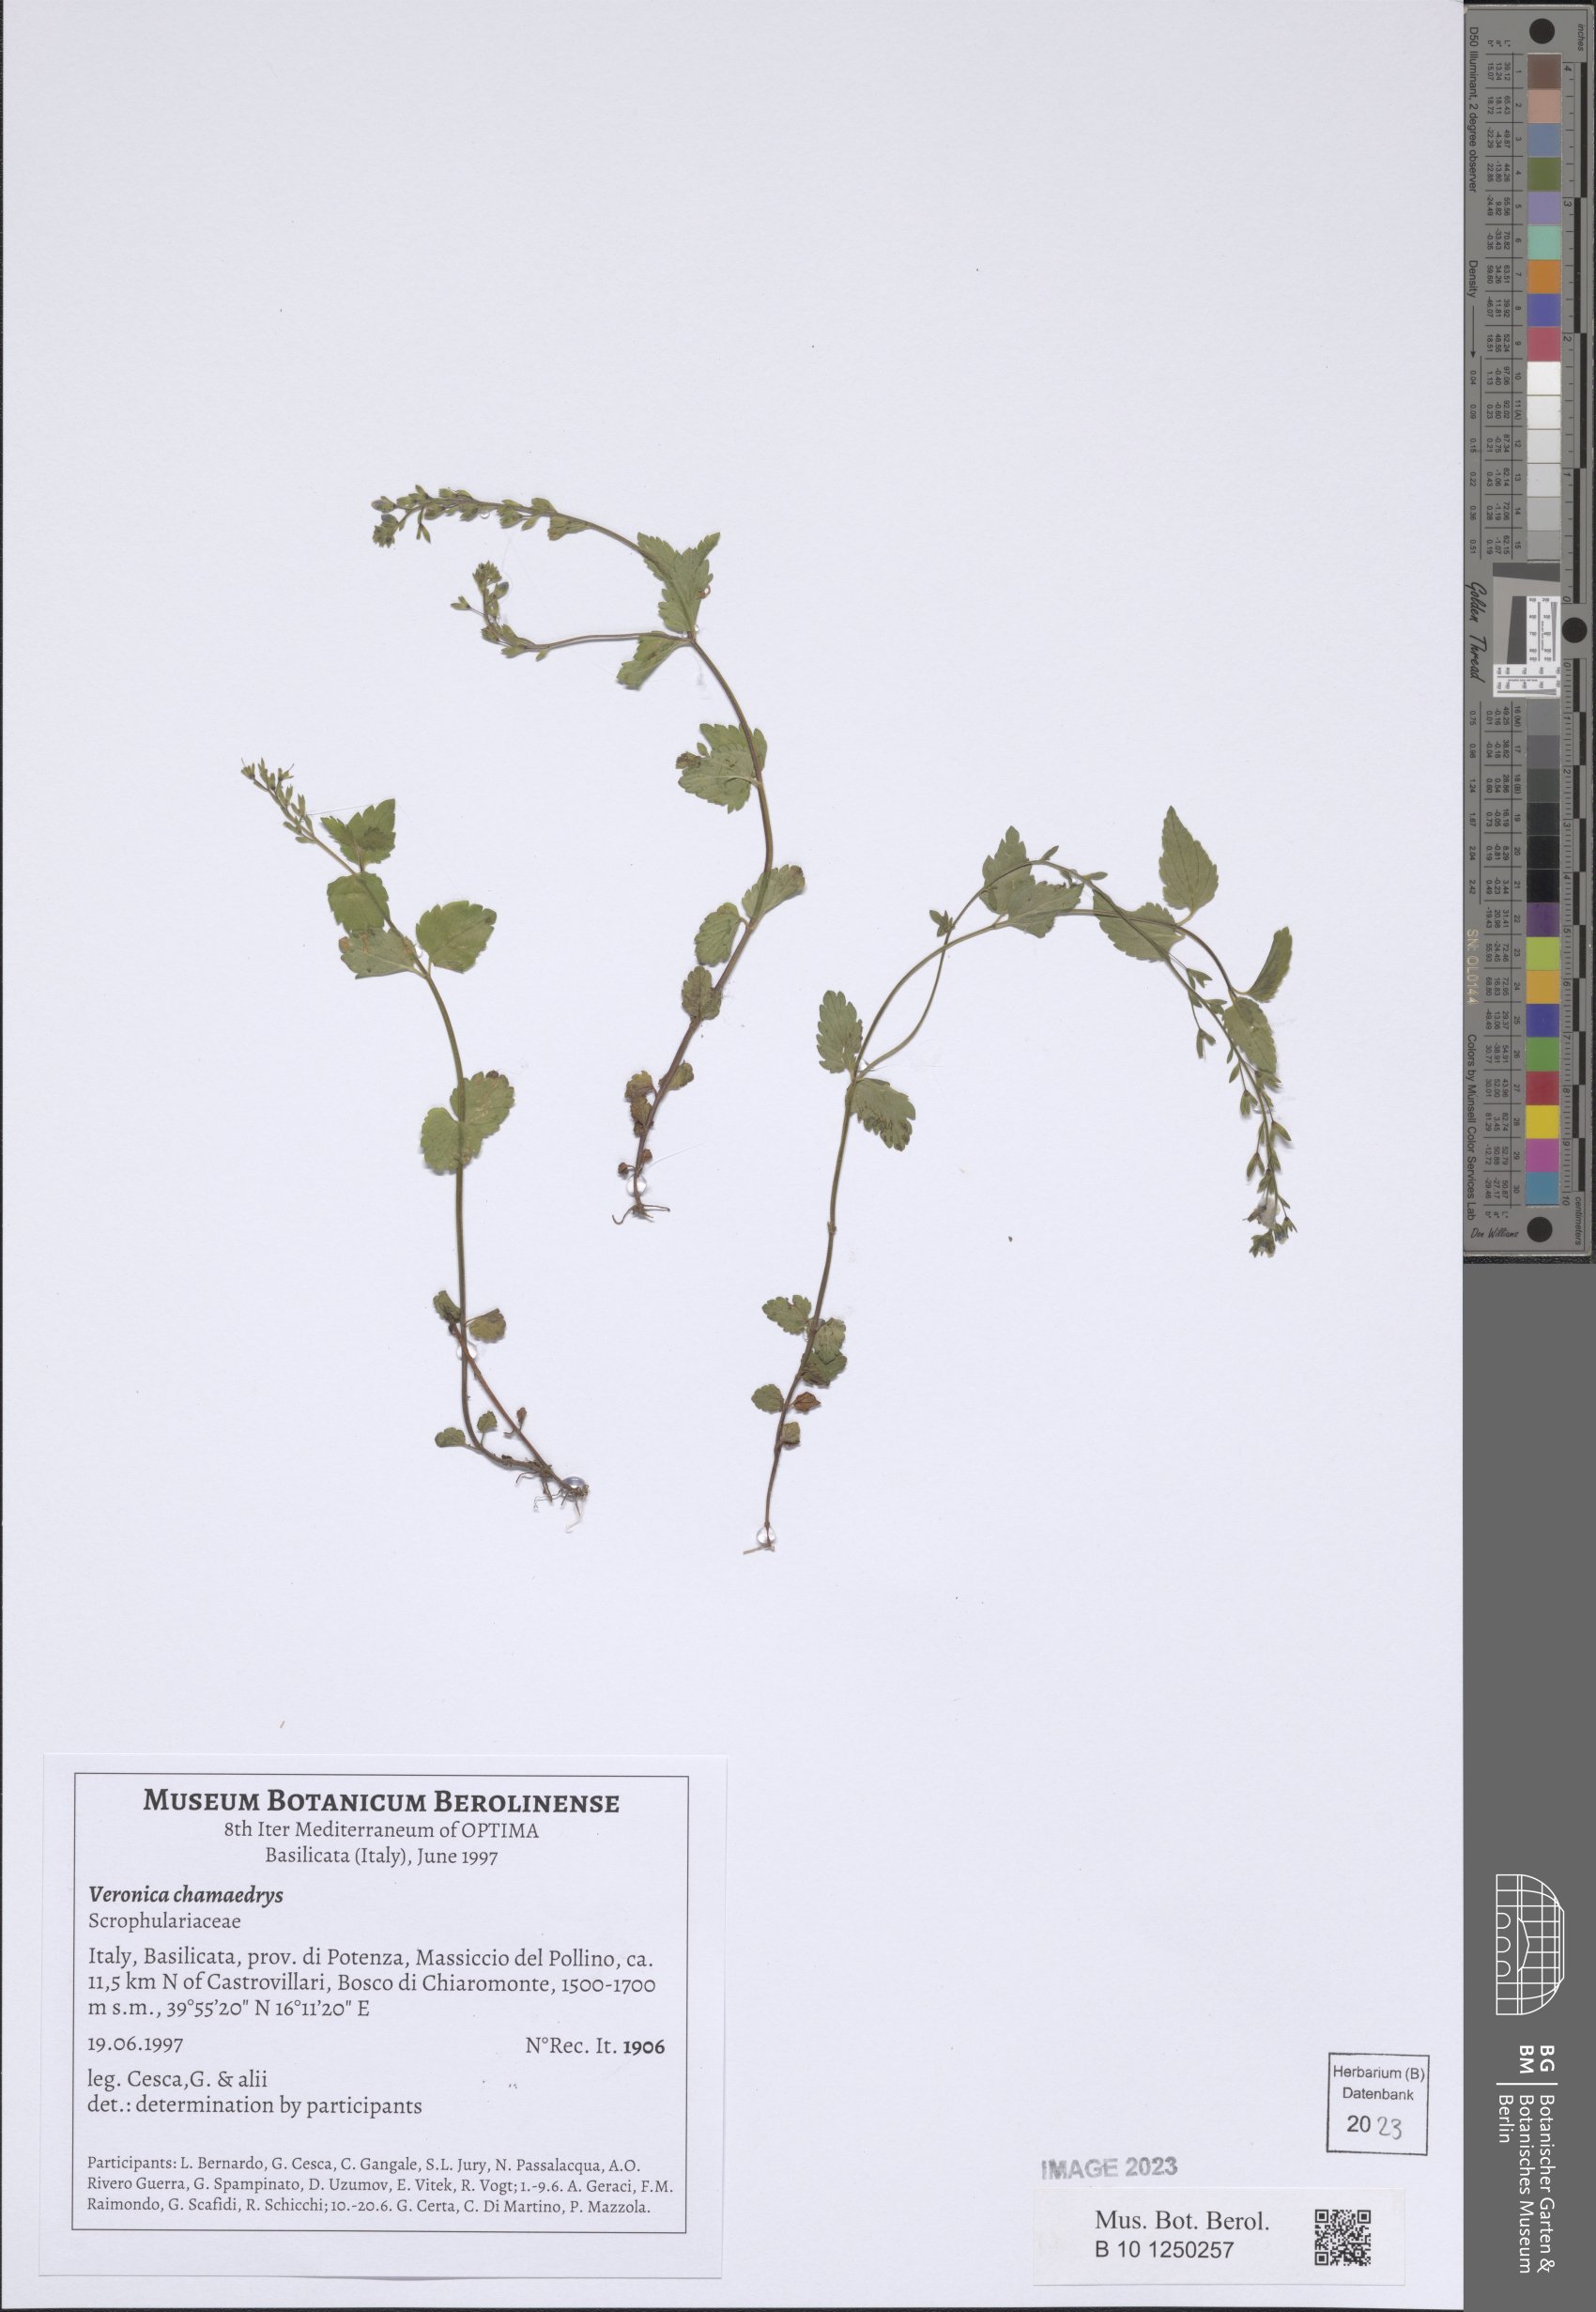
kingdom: Plantae
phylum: Tracheophyta
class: Magnoliopsida
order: Lamiales
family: Plantaginaceae
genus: Veronica
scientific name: Veronica chamaedrys
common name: Germander speedwell
